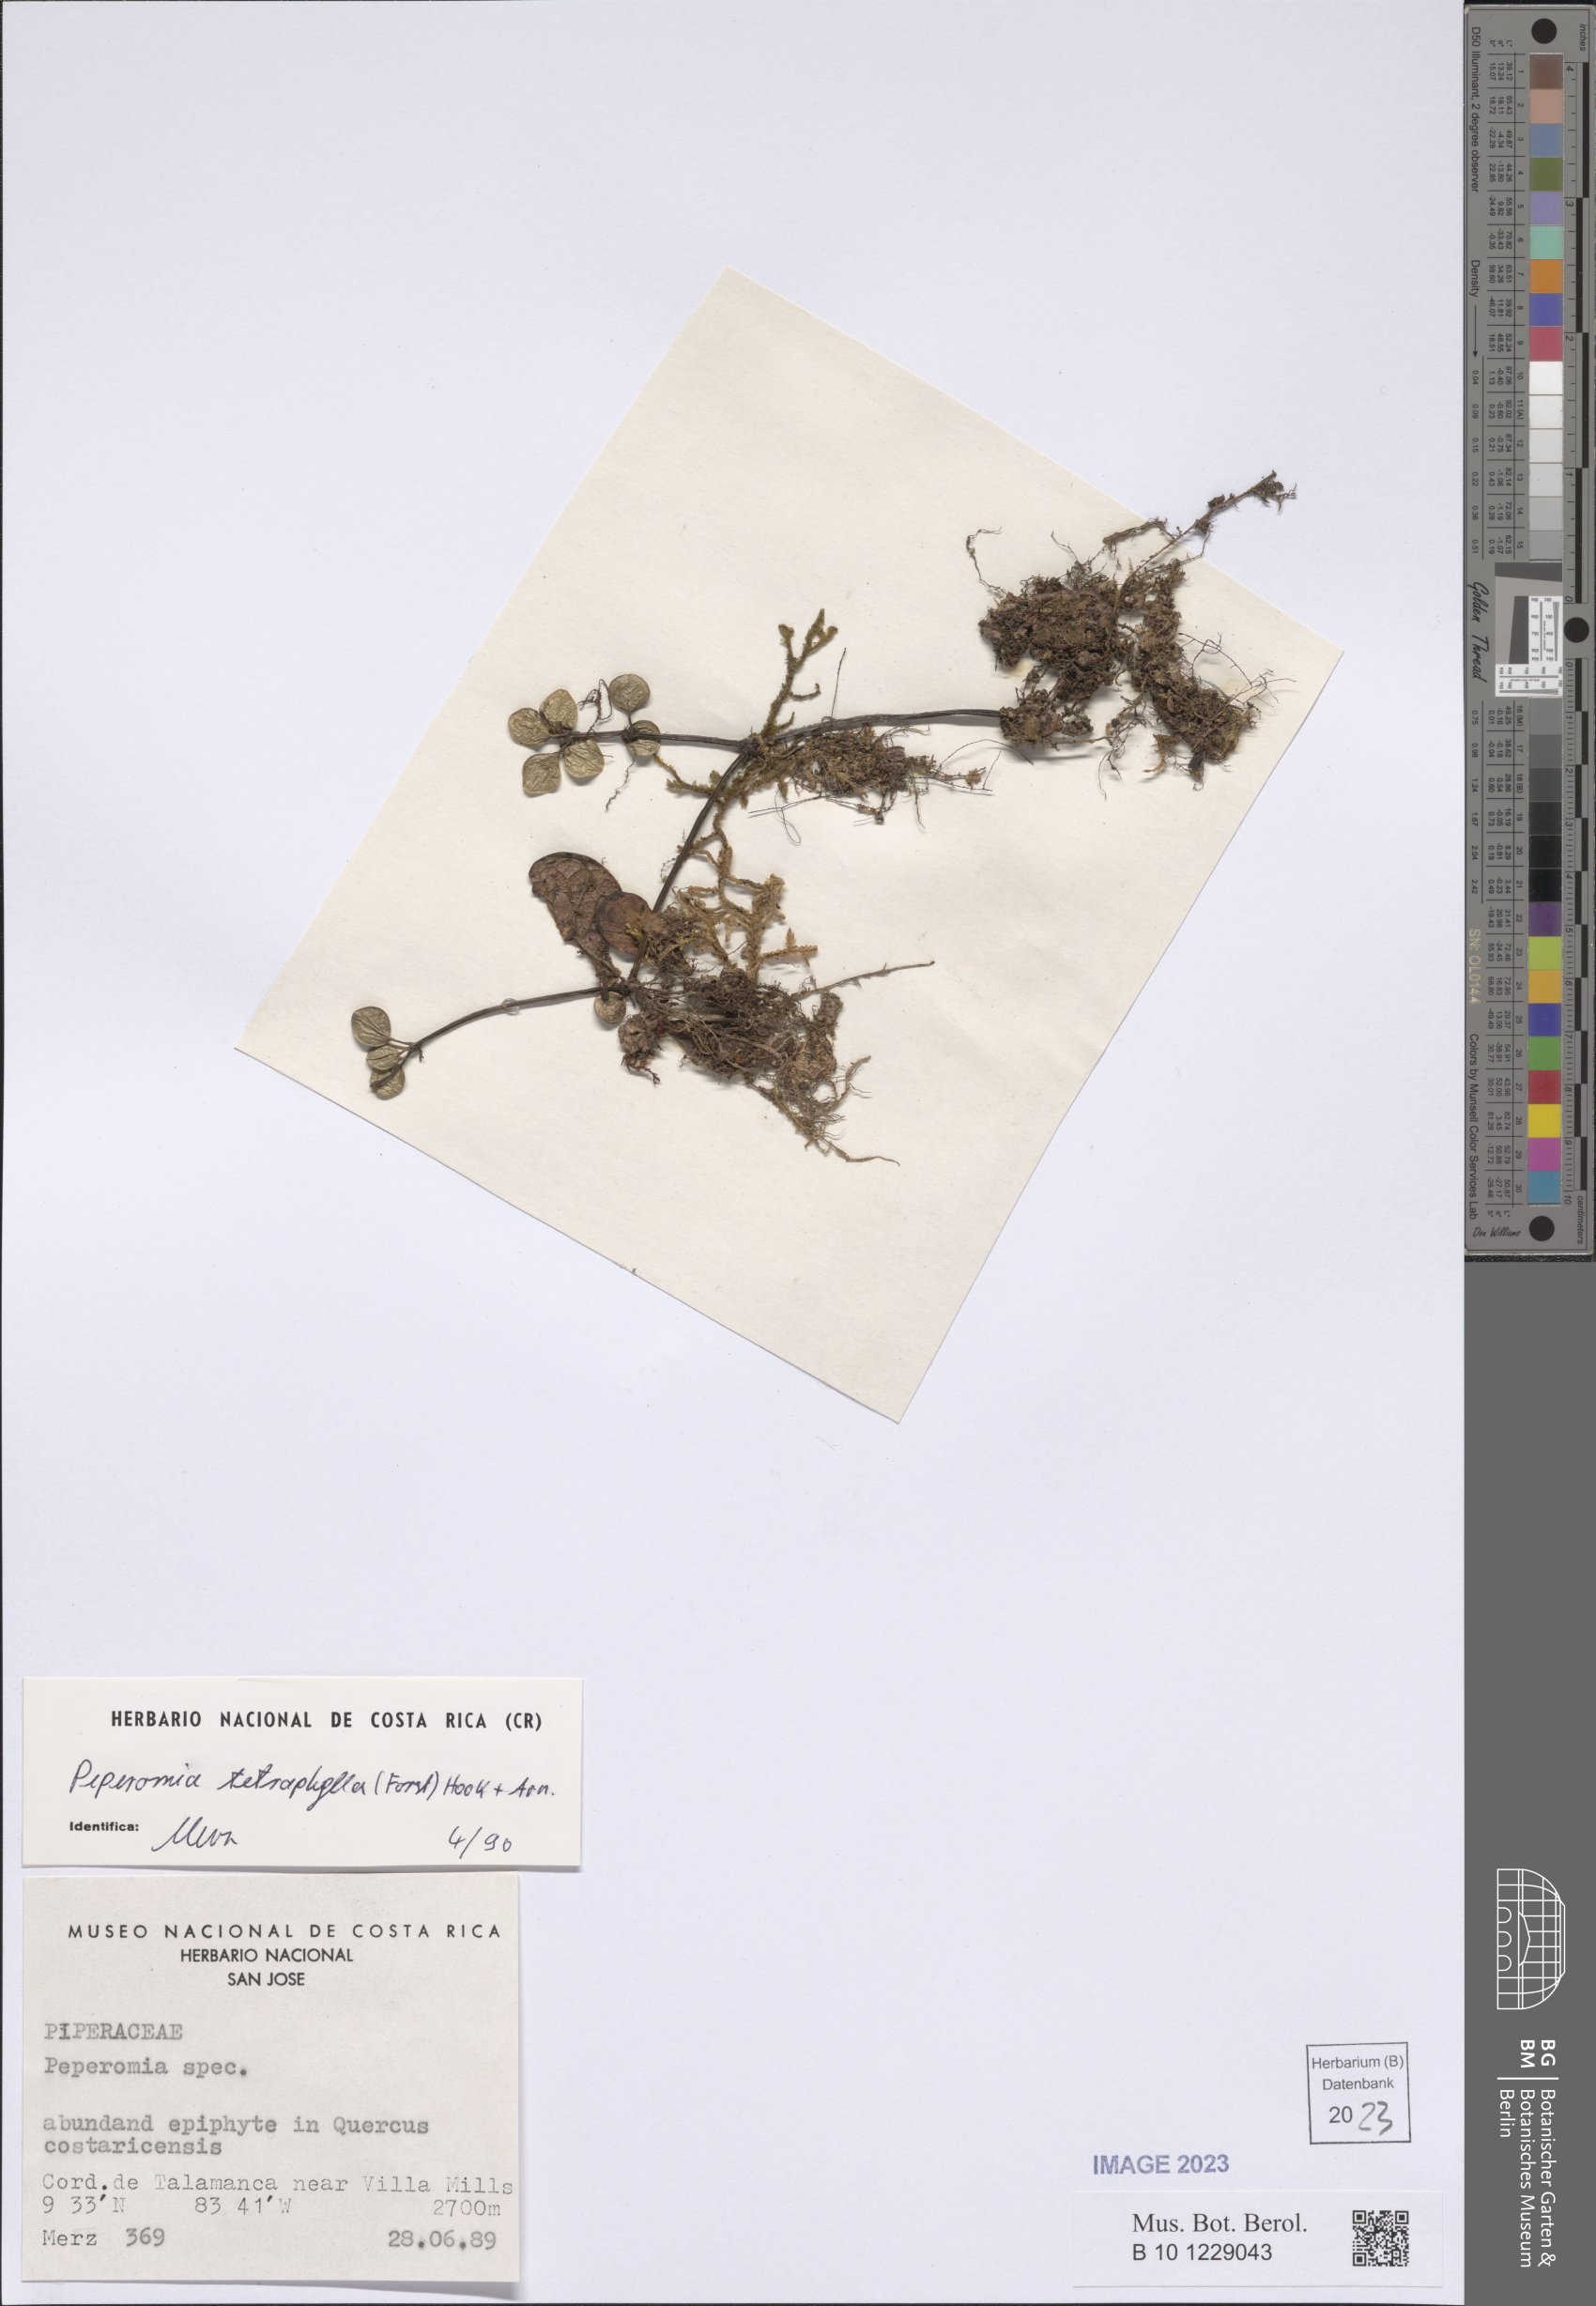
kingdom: Plantae
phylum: Tracheophyta
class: Magnoliopsida
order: Piperales
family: Piperaceae
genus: Peperomia
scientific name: Peperomia tetraphylla
